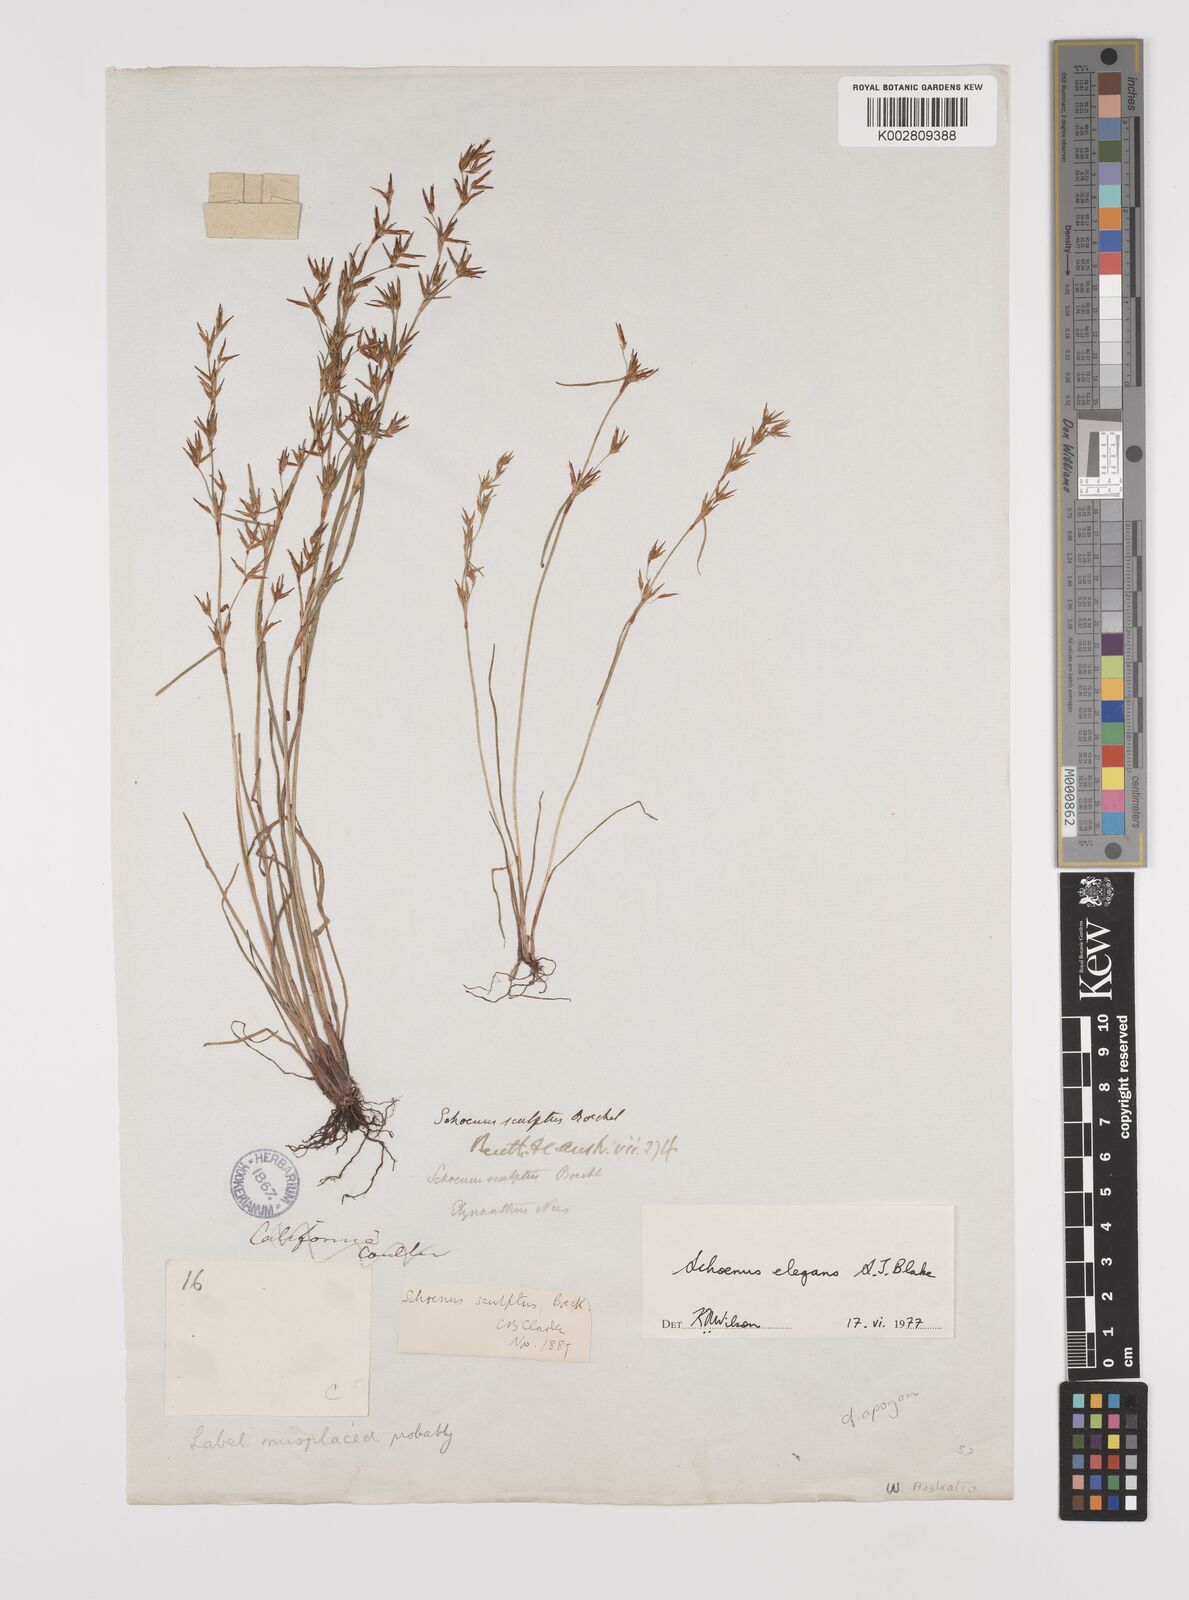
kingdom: Plantae
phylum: Tracheophyta
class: Liliopsida
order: Poales
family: Cyperaceae
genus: Schoenus
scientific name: Schoenus elegans
